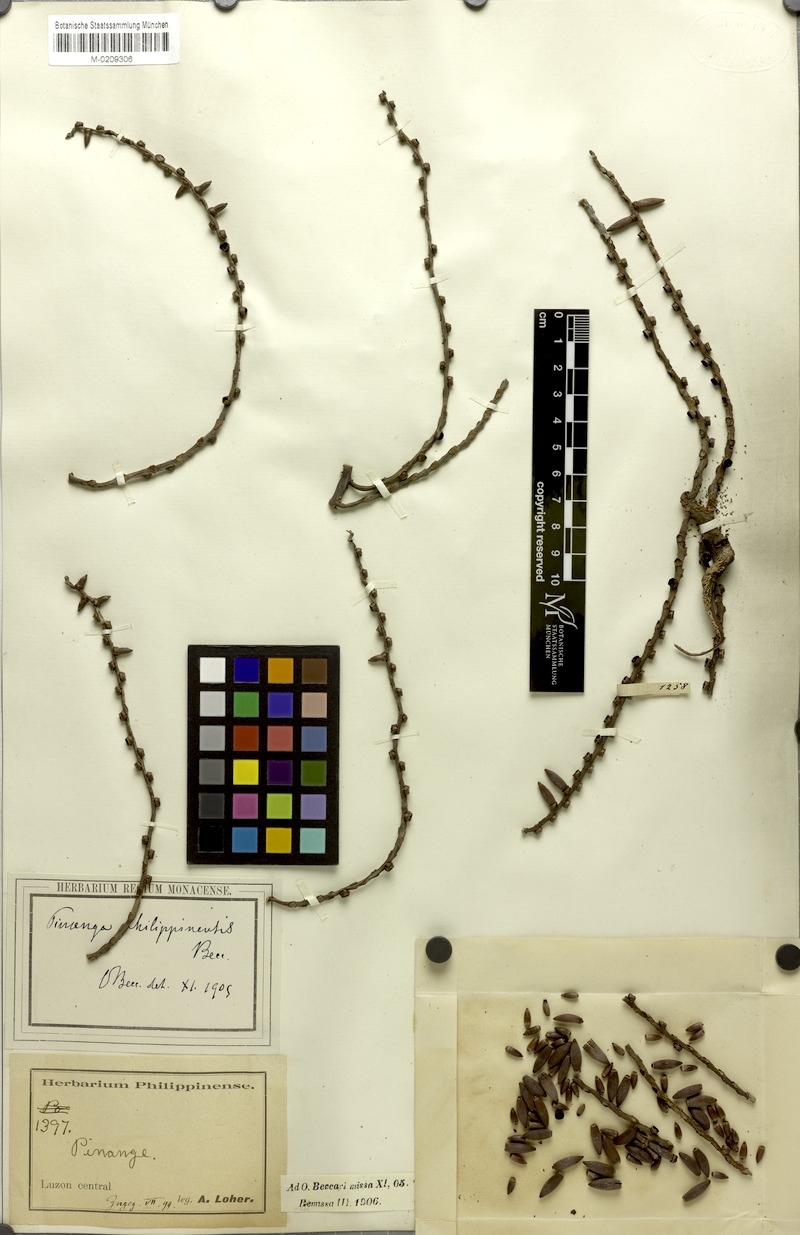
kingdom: Plantae
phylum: Tracheophyta
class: Liliopsida
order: Arecales
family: Arecaceae
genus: Pinanga
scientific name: Pinanga philippinensis
